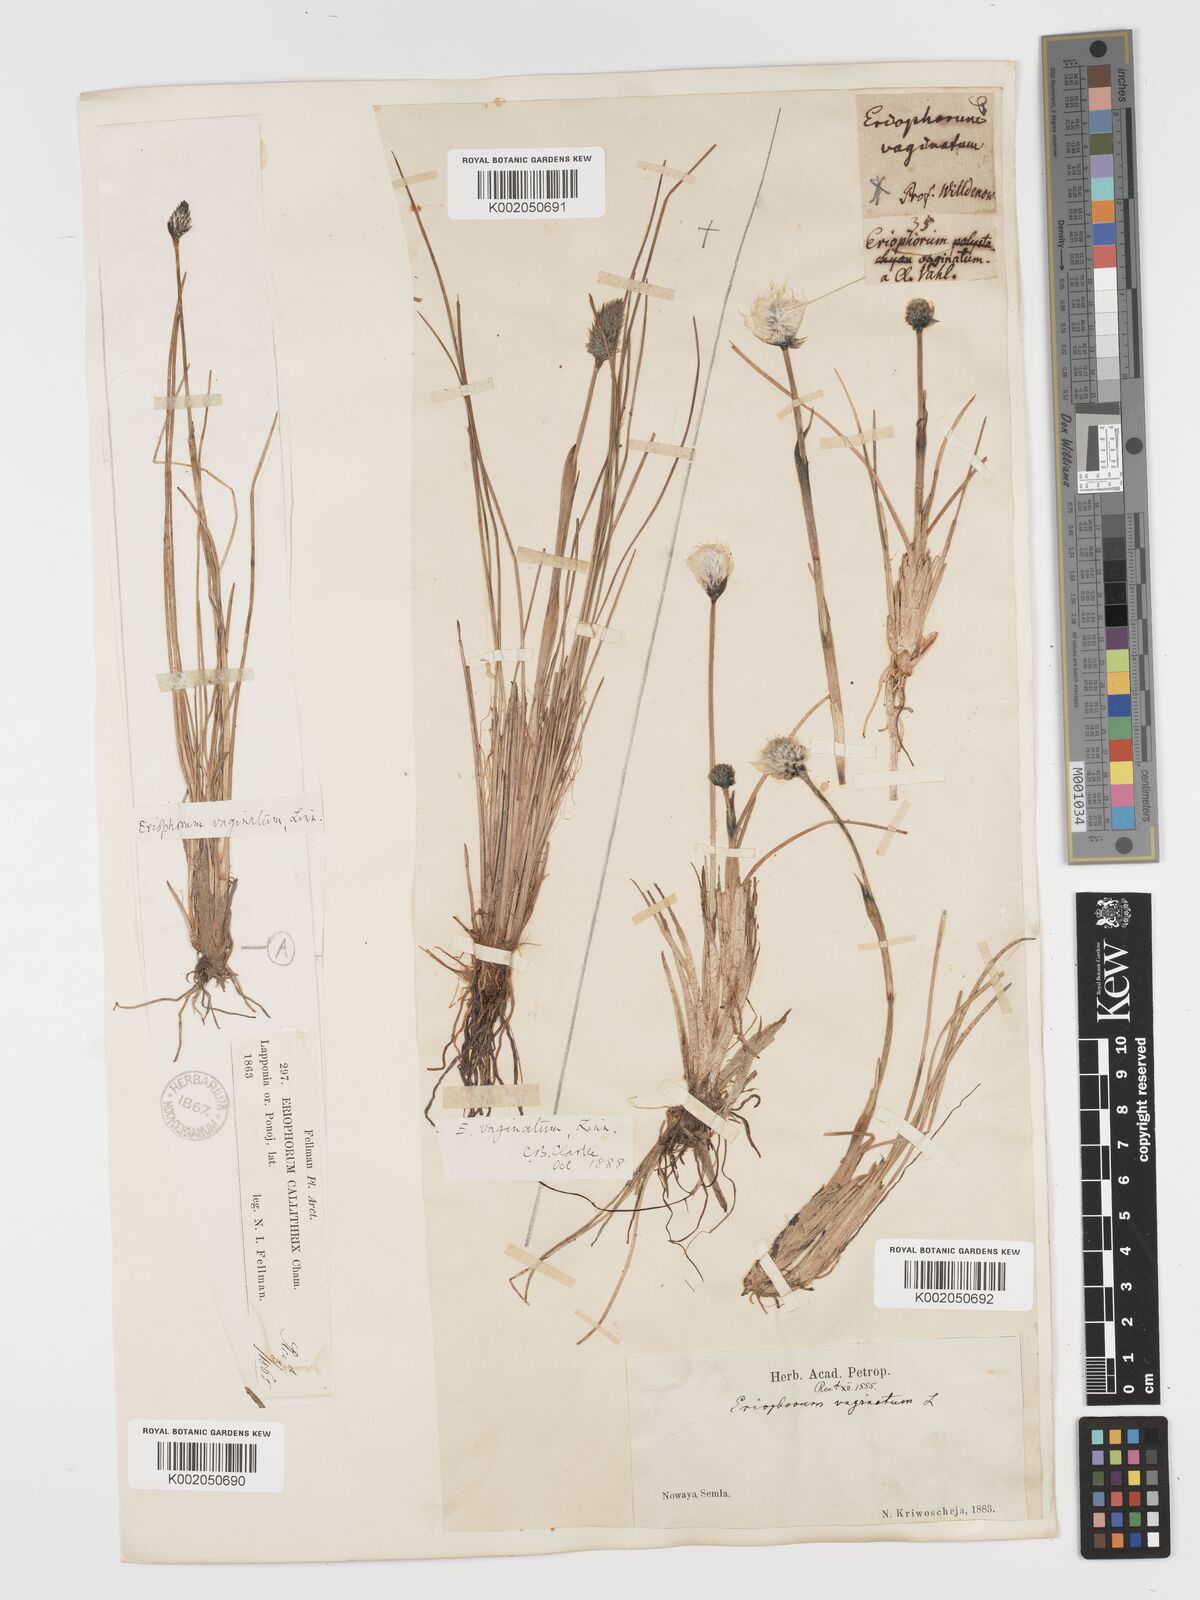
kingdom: Plantae
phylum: Tracheophyta
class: Liliopsida
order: Poales
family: Cyperaceae
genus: Eriophorum
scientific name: Eriophorum vaginatum
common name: Hare's-tail cottongrass
